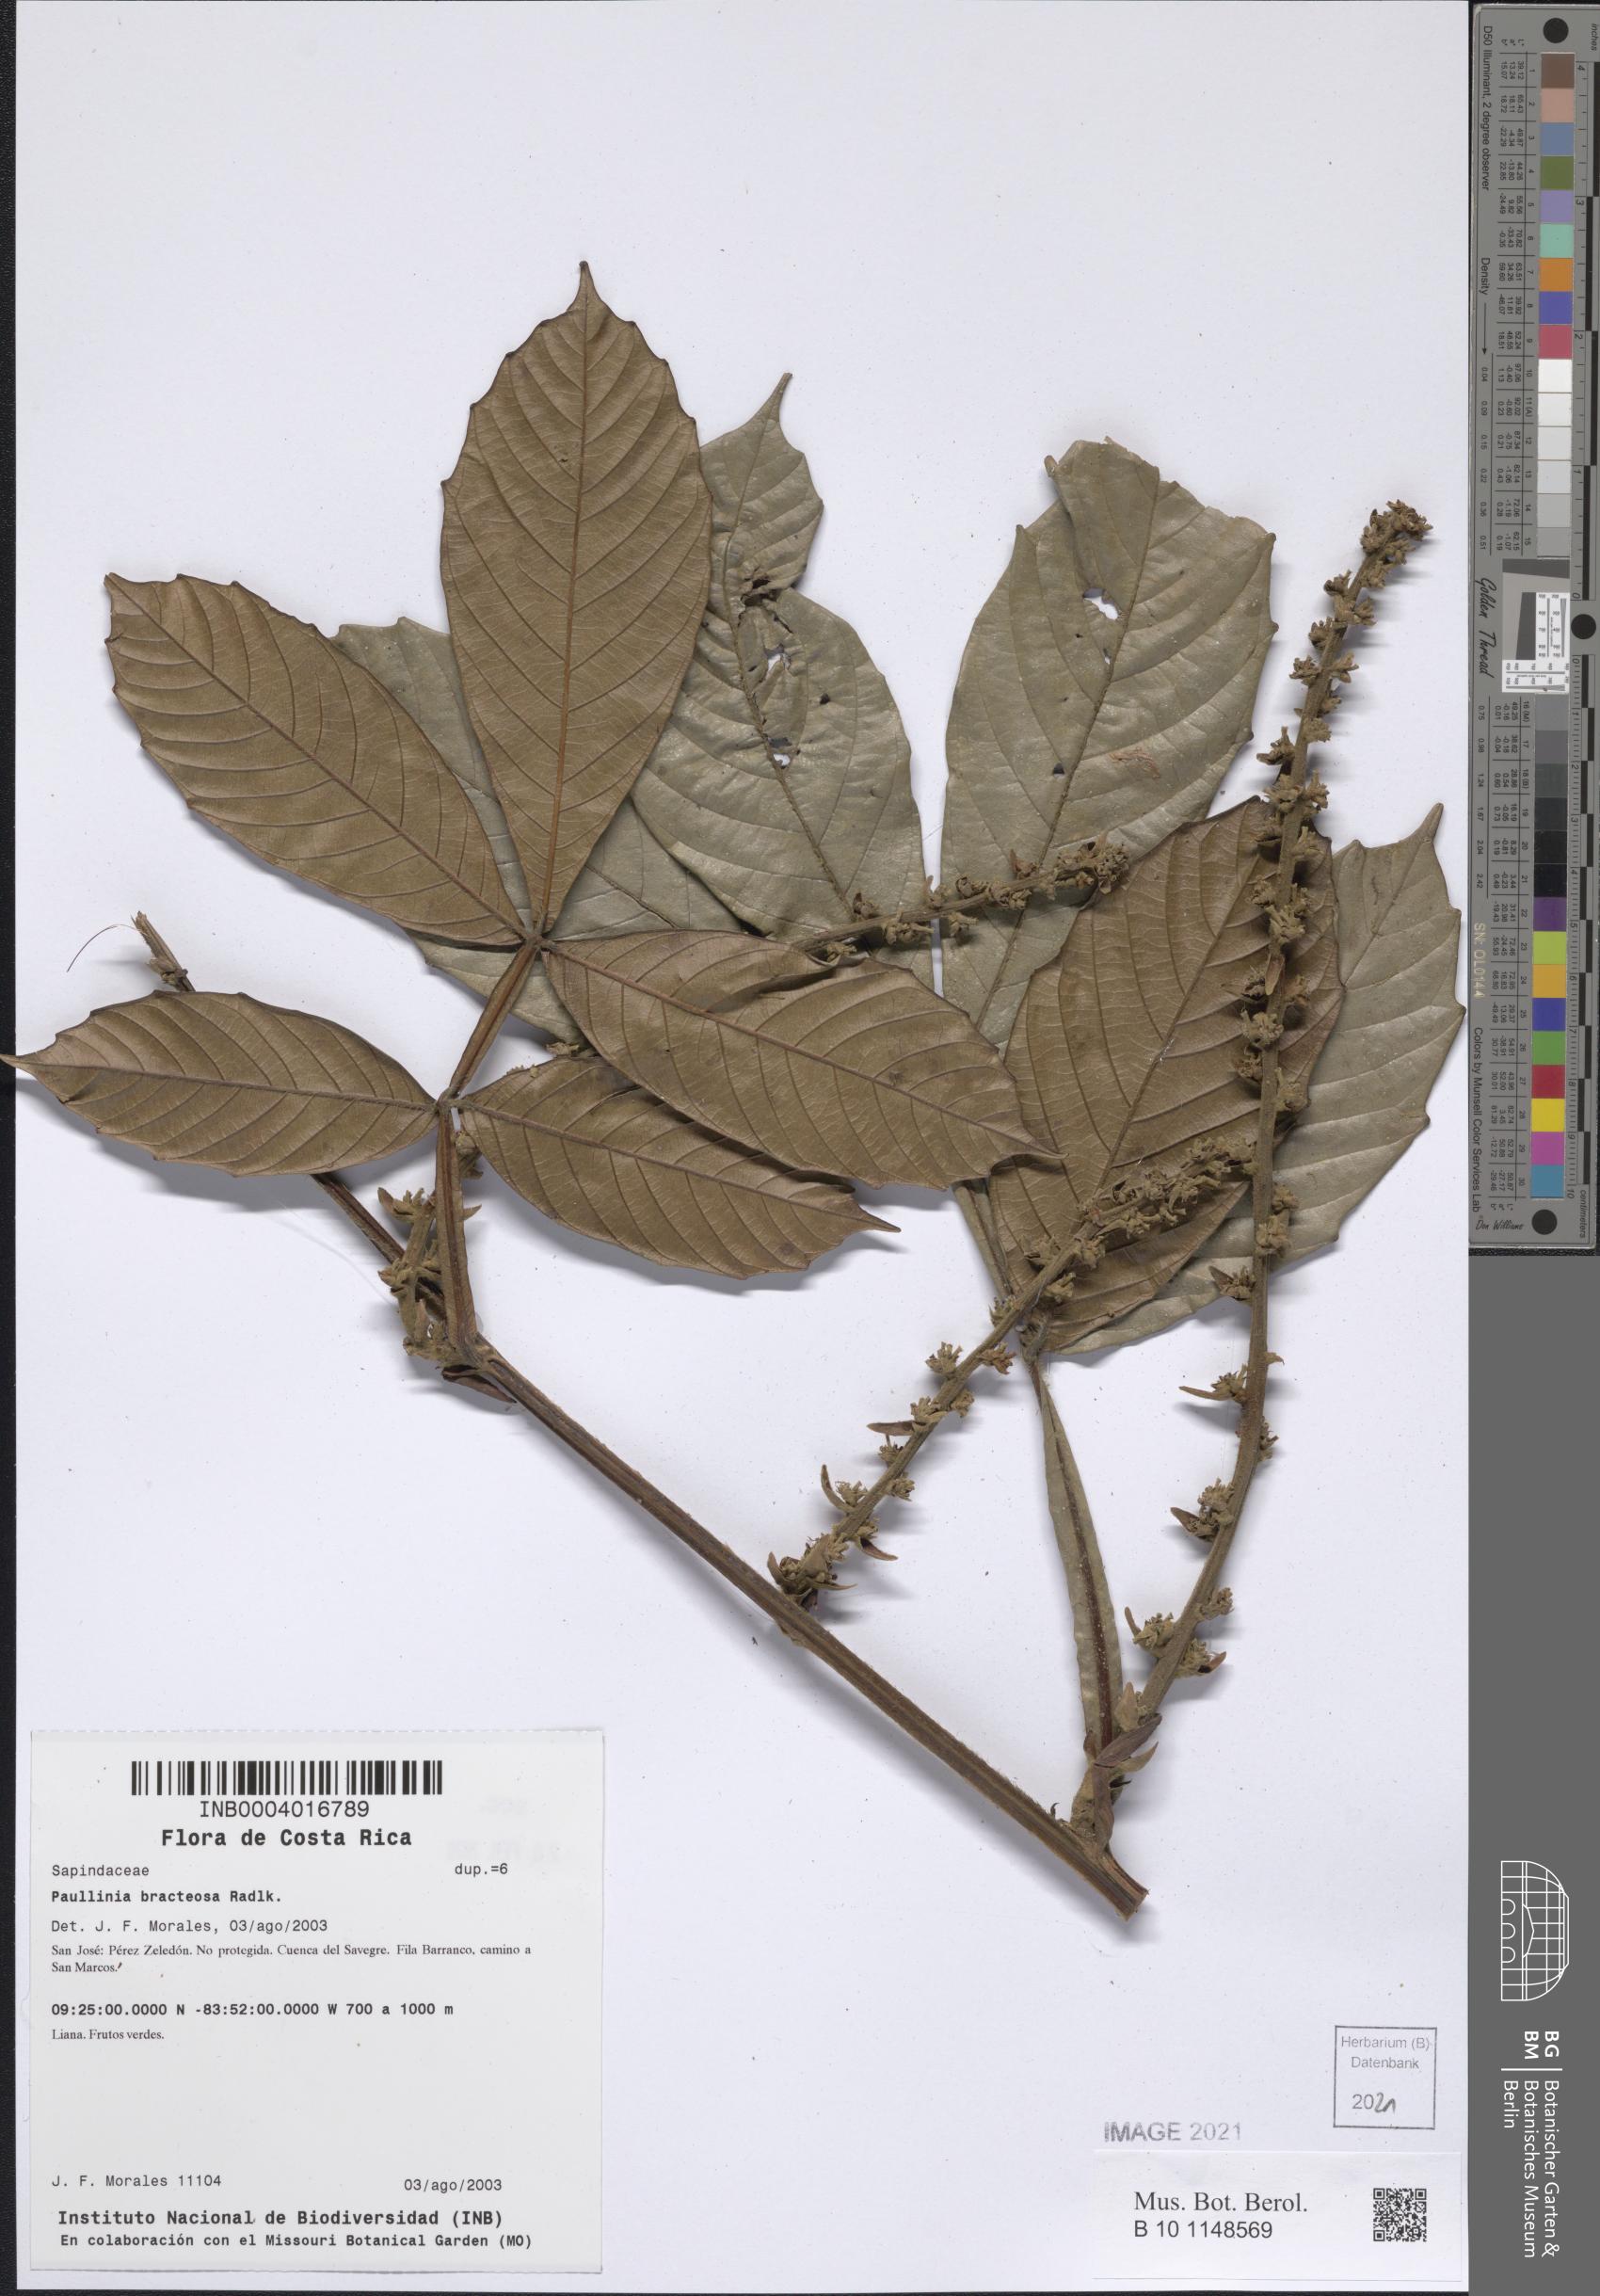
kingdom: Plantae
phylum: Tracheophyta
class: Magnoliopsida
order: Sapindales
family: Sapindaceae
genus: Paullinia
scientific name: Paullinia bracteosa
